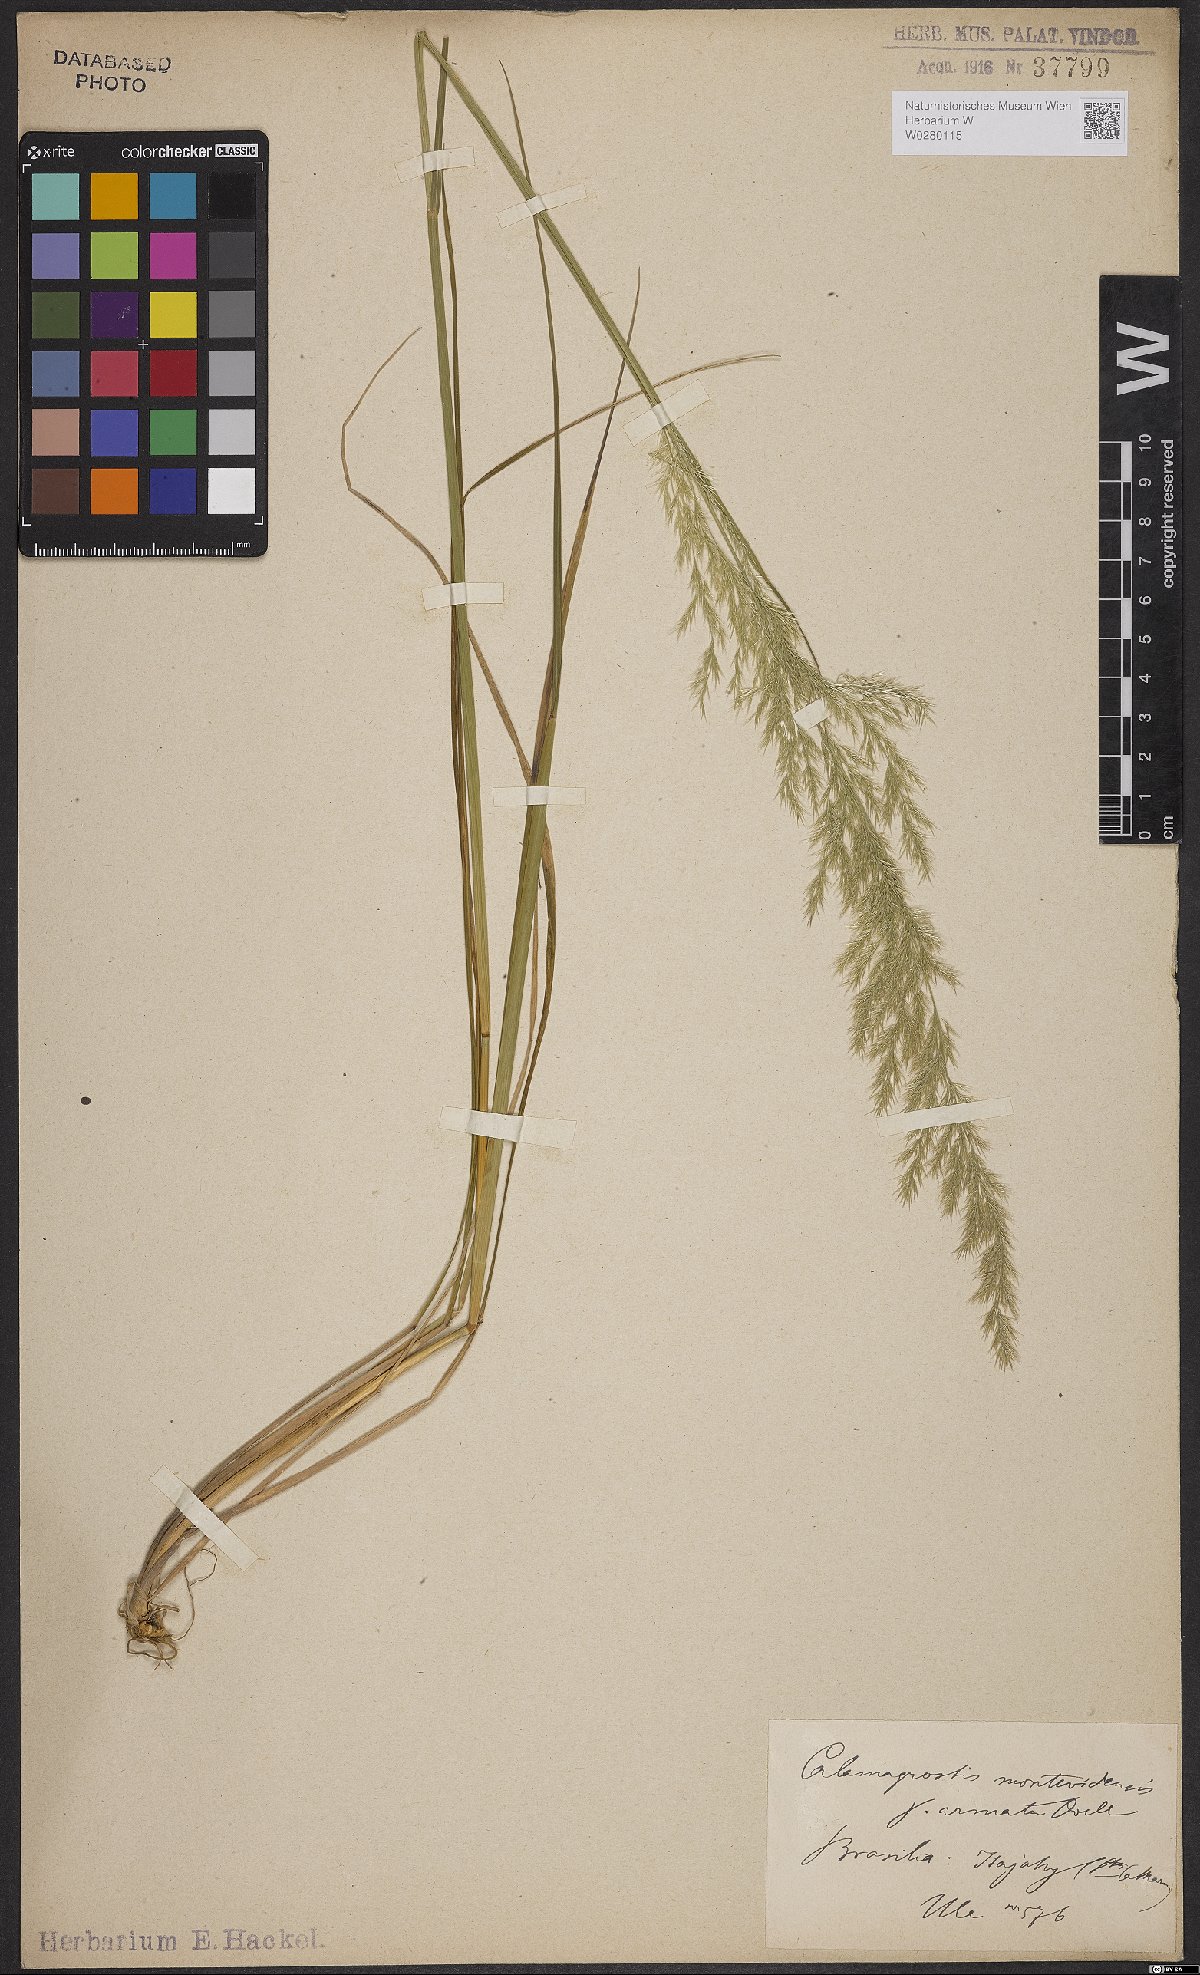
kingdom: Plantae
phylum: Tracheophyta
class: Liliopsida
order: Poales
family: Poaceae
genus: Cinnagrostis
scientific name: Cinnagrostis viridiflavescens
